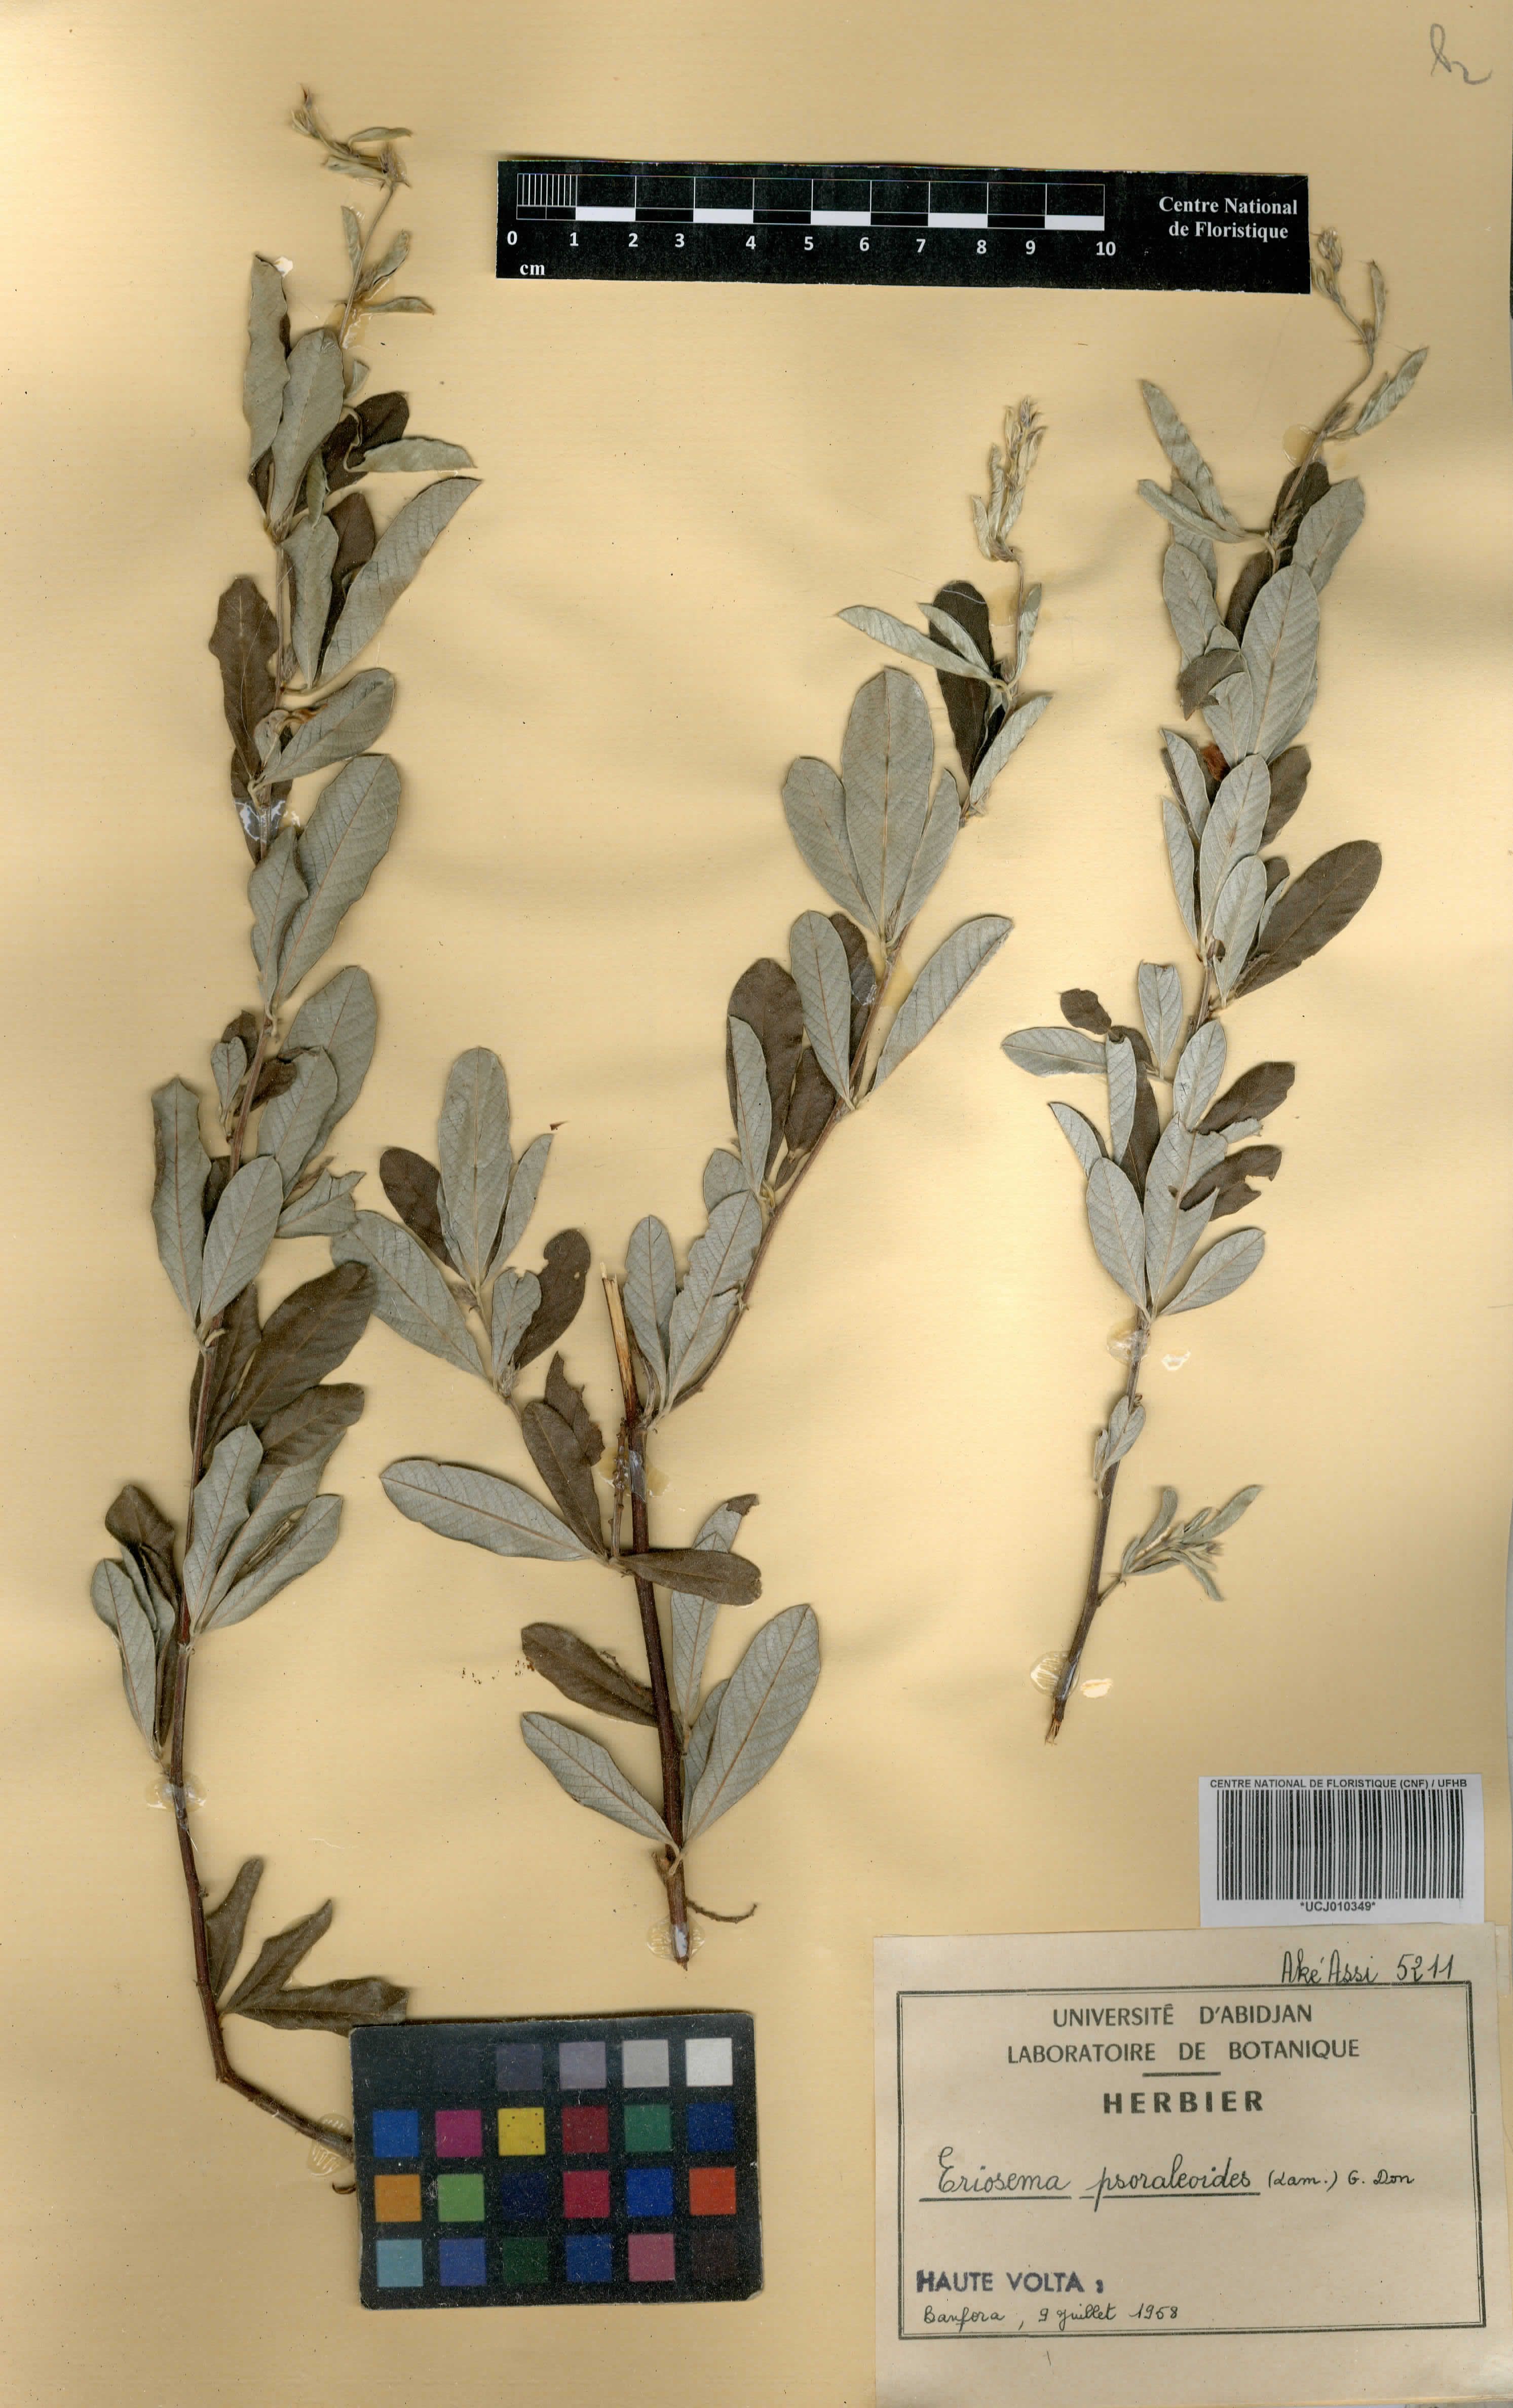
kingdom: Plantae
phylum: Tracheophyta
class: Magnoliopsida
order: Fabales
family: Fabaceae
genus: Eriosema
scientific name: Eriosema psoraleoides
